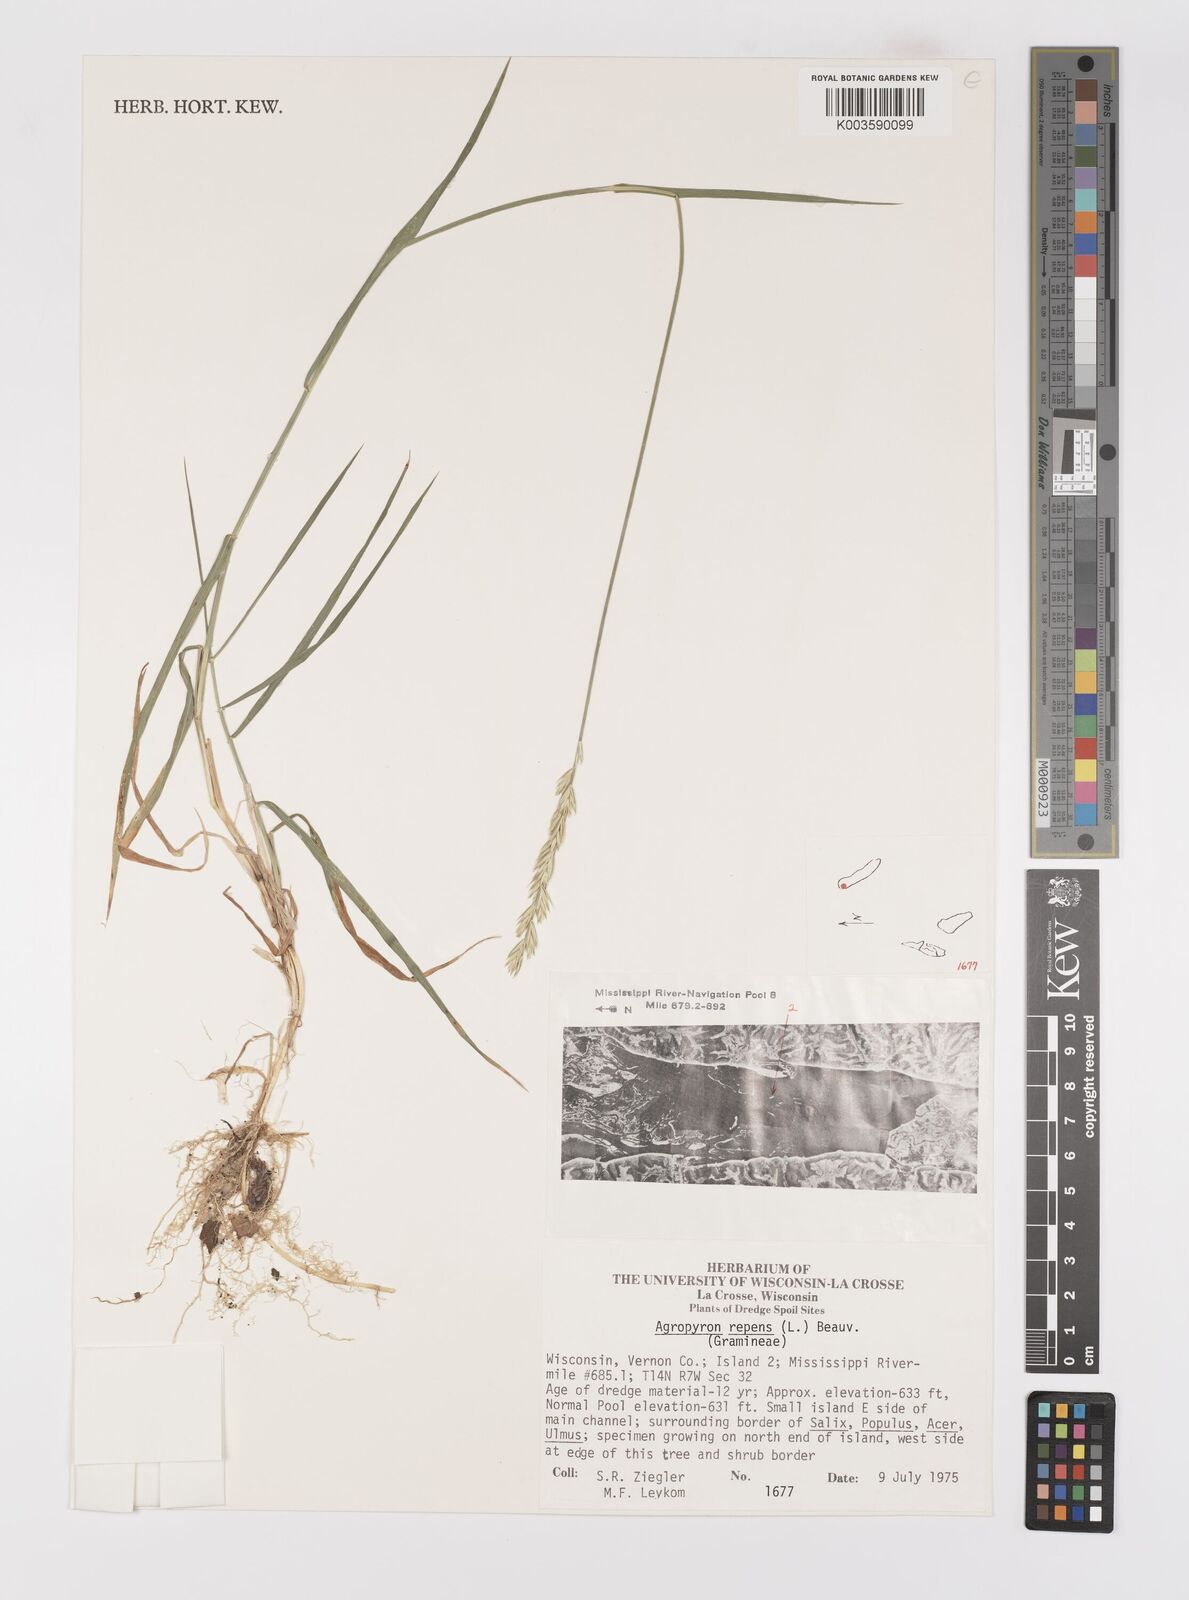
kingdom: Plantae
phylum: Tracheophyta
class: Liliopsida
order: Poales
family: Poaceae
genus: Elymus
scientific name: Elymus repens
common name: Quackgrass
